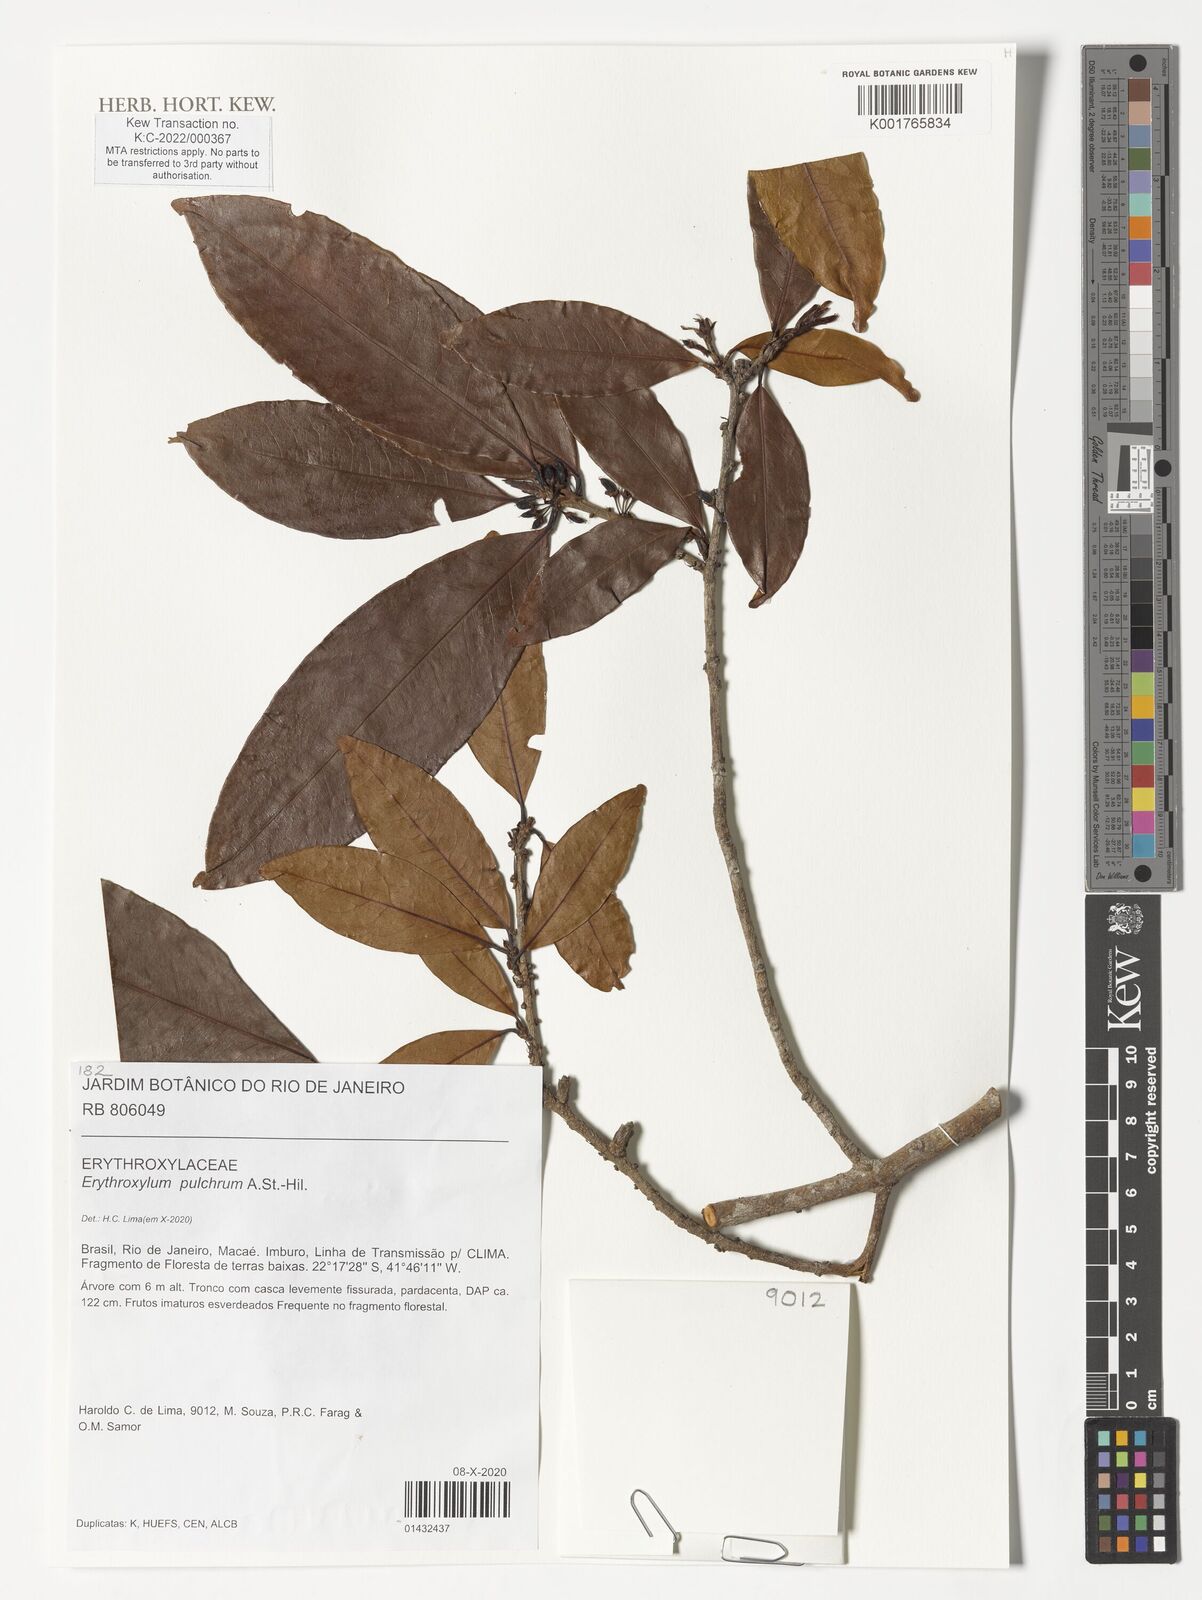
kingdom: Plantae
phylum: Tracheophyta
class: Magnoliopsida
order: Malpighiales
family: Erythroxylaceae
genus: Erythroxylum
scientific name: Erythroxylum pulchrum
